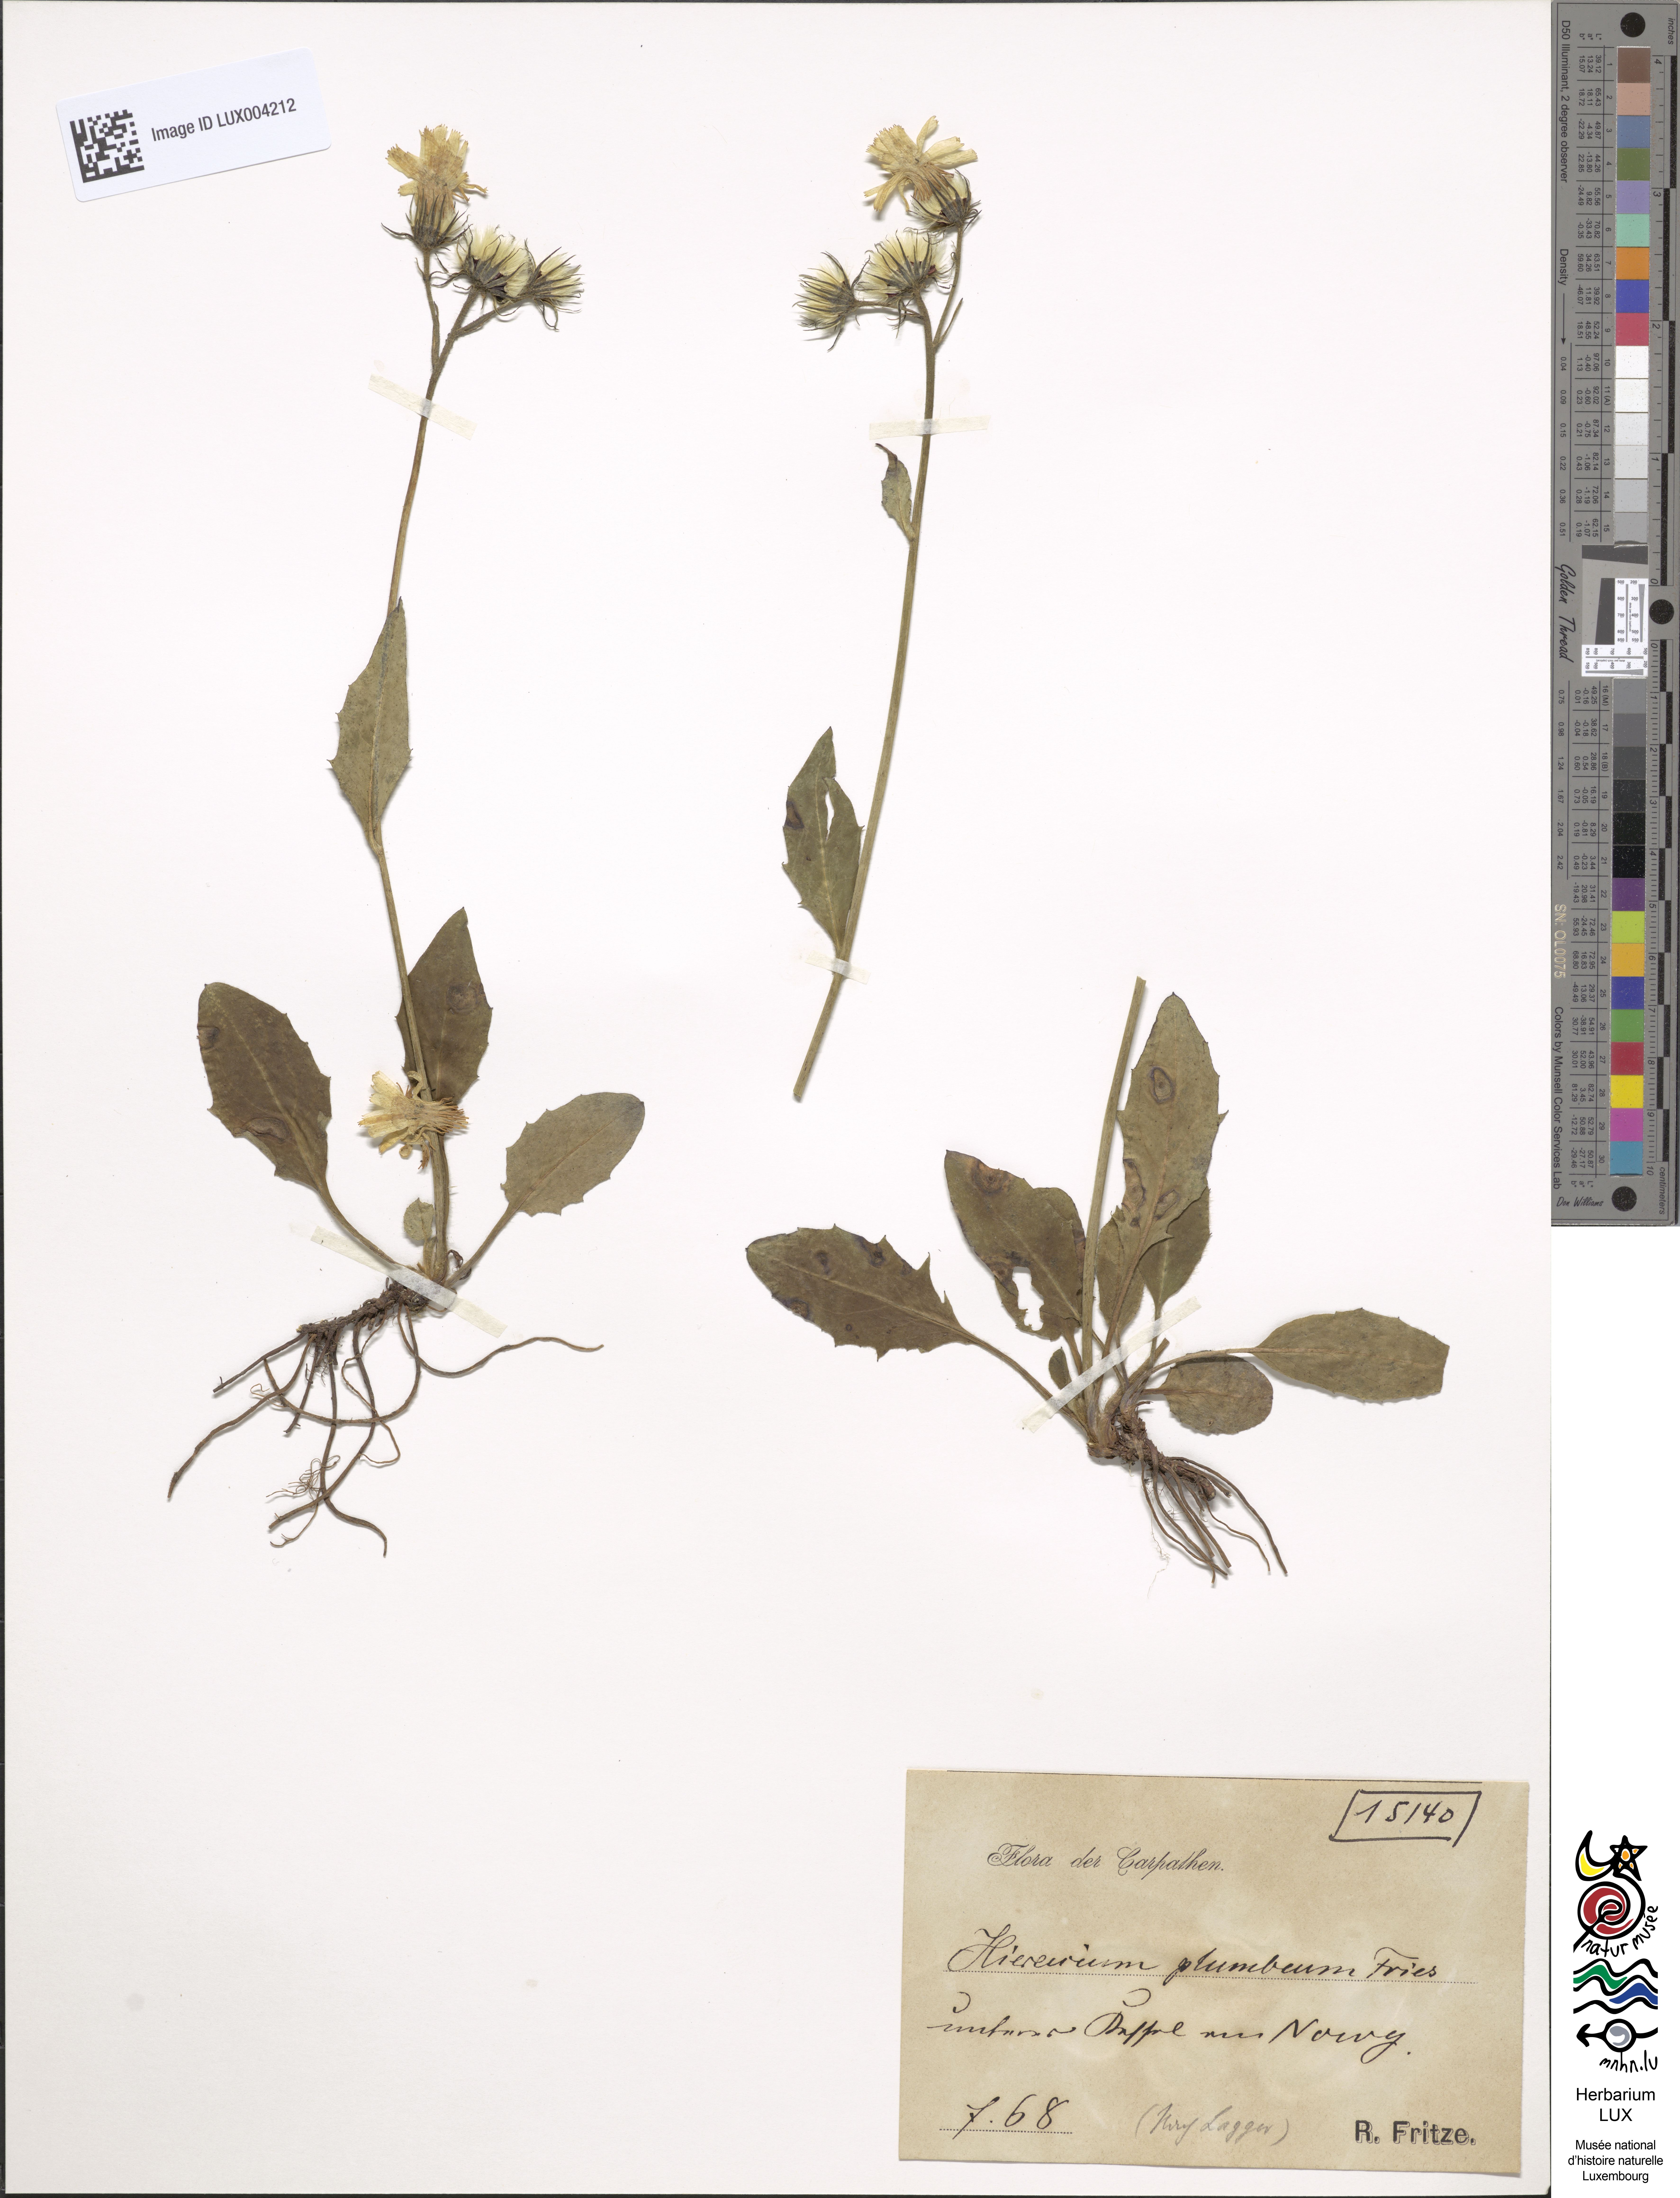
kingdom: Plantae
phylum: Tracheophyta
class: Magnoliopsida
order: Asterales
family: Asteraceae
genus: Hieracium
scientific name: Hieracium plumbeum
